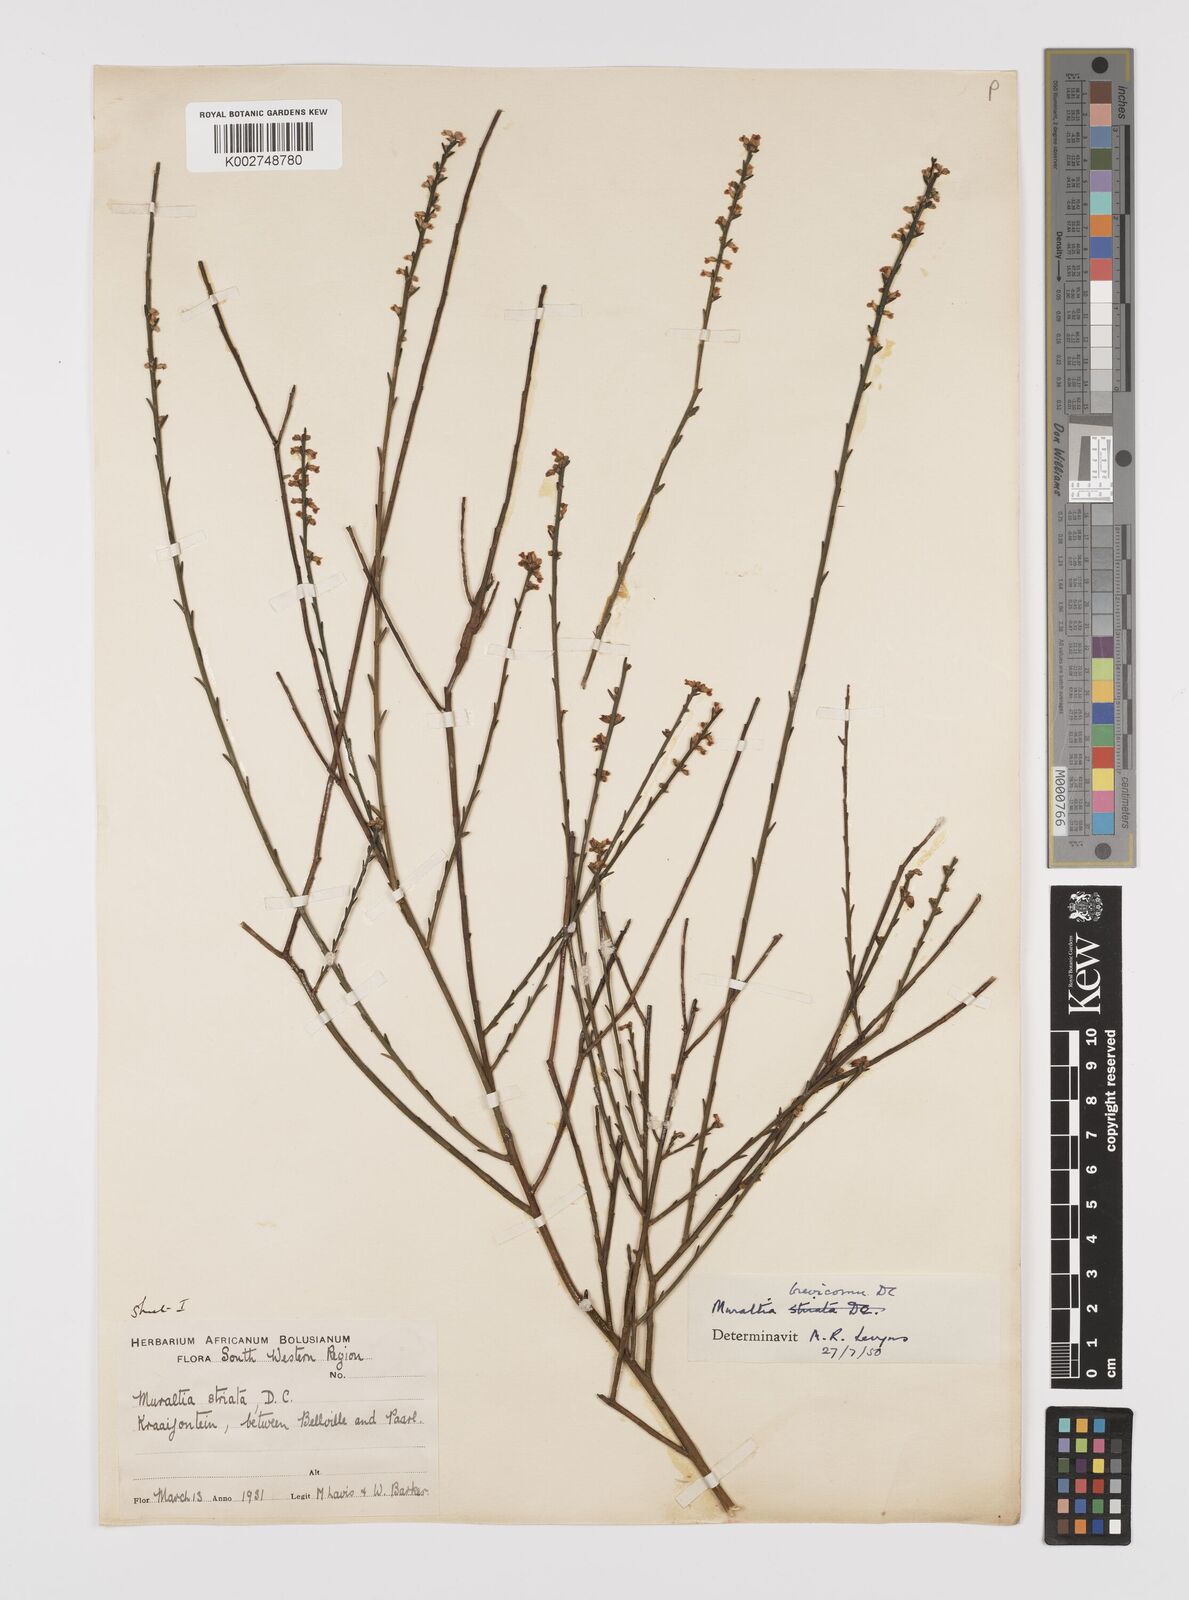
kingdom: Plantae
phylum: Tracheophyta
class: Magnoliopsida
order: Fabales
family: Polygalaceae
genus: Muraltia
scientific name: Muraltia striata
